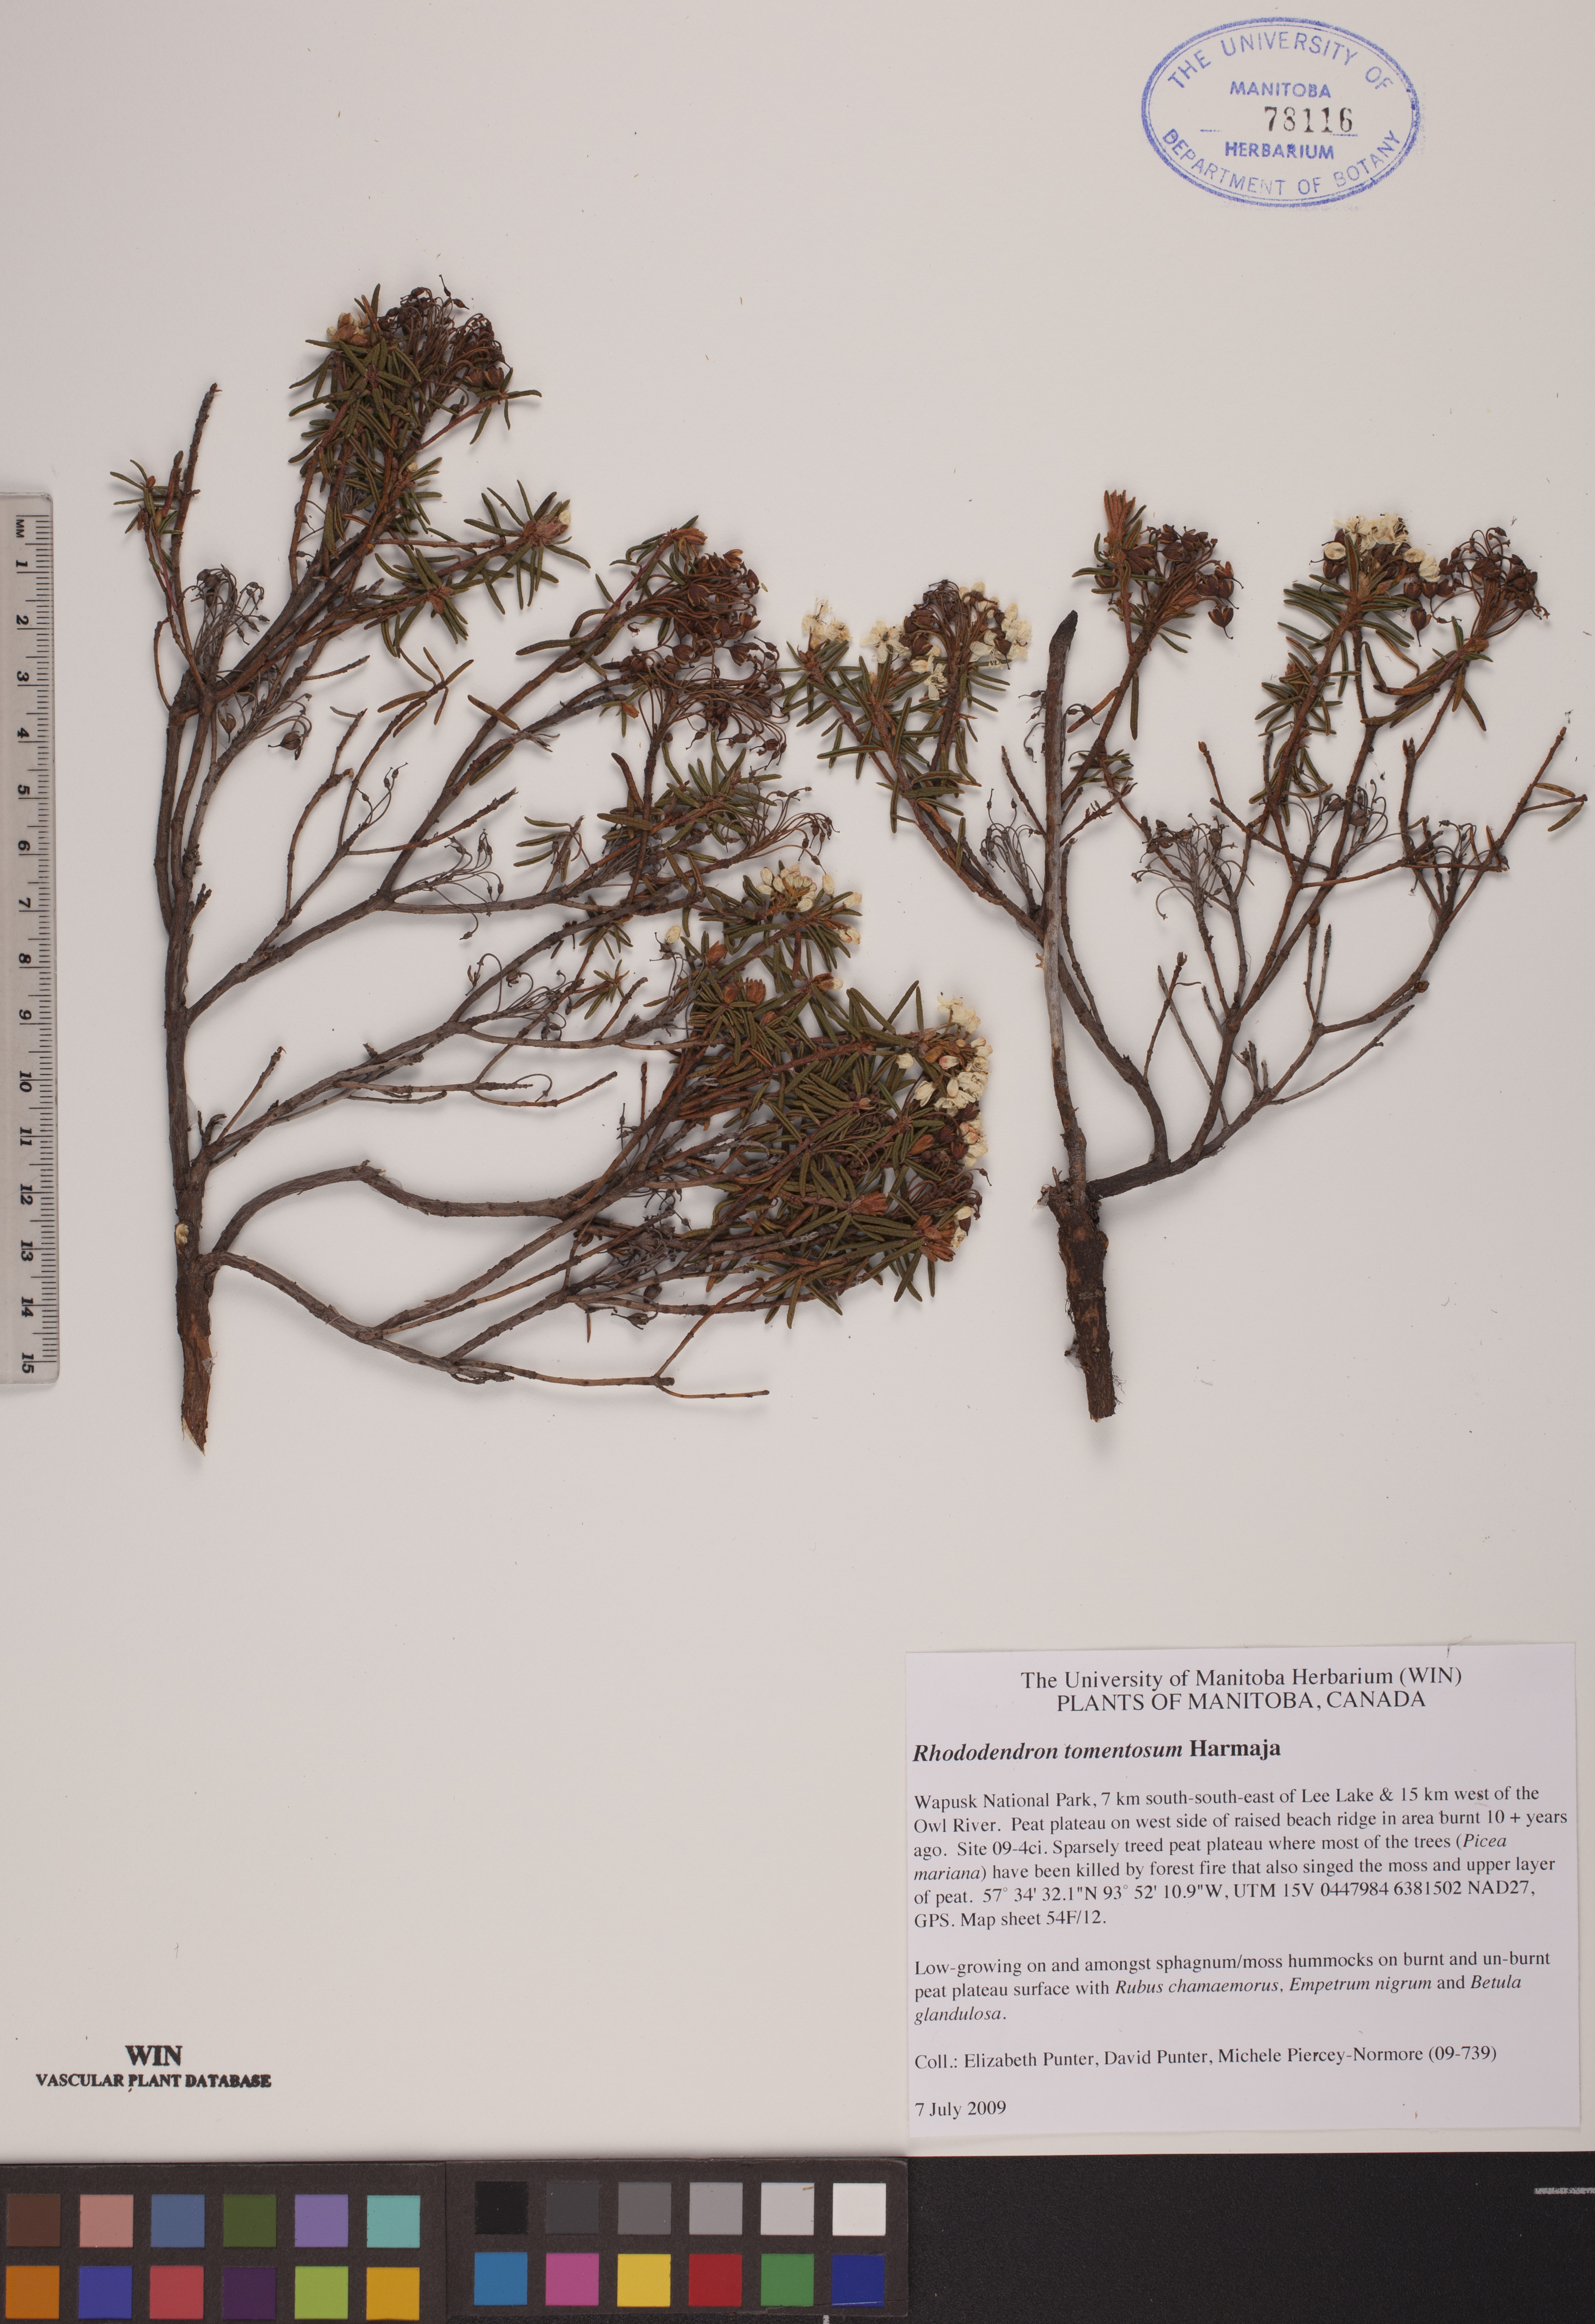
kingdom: Plantae
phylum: Tracheophyta
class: Magnoliopsida
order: Ericales
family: Ericaceae
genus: Rhododendron
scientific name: Rhododendron tomentosum
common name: Marsh labrador tea
